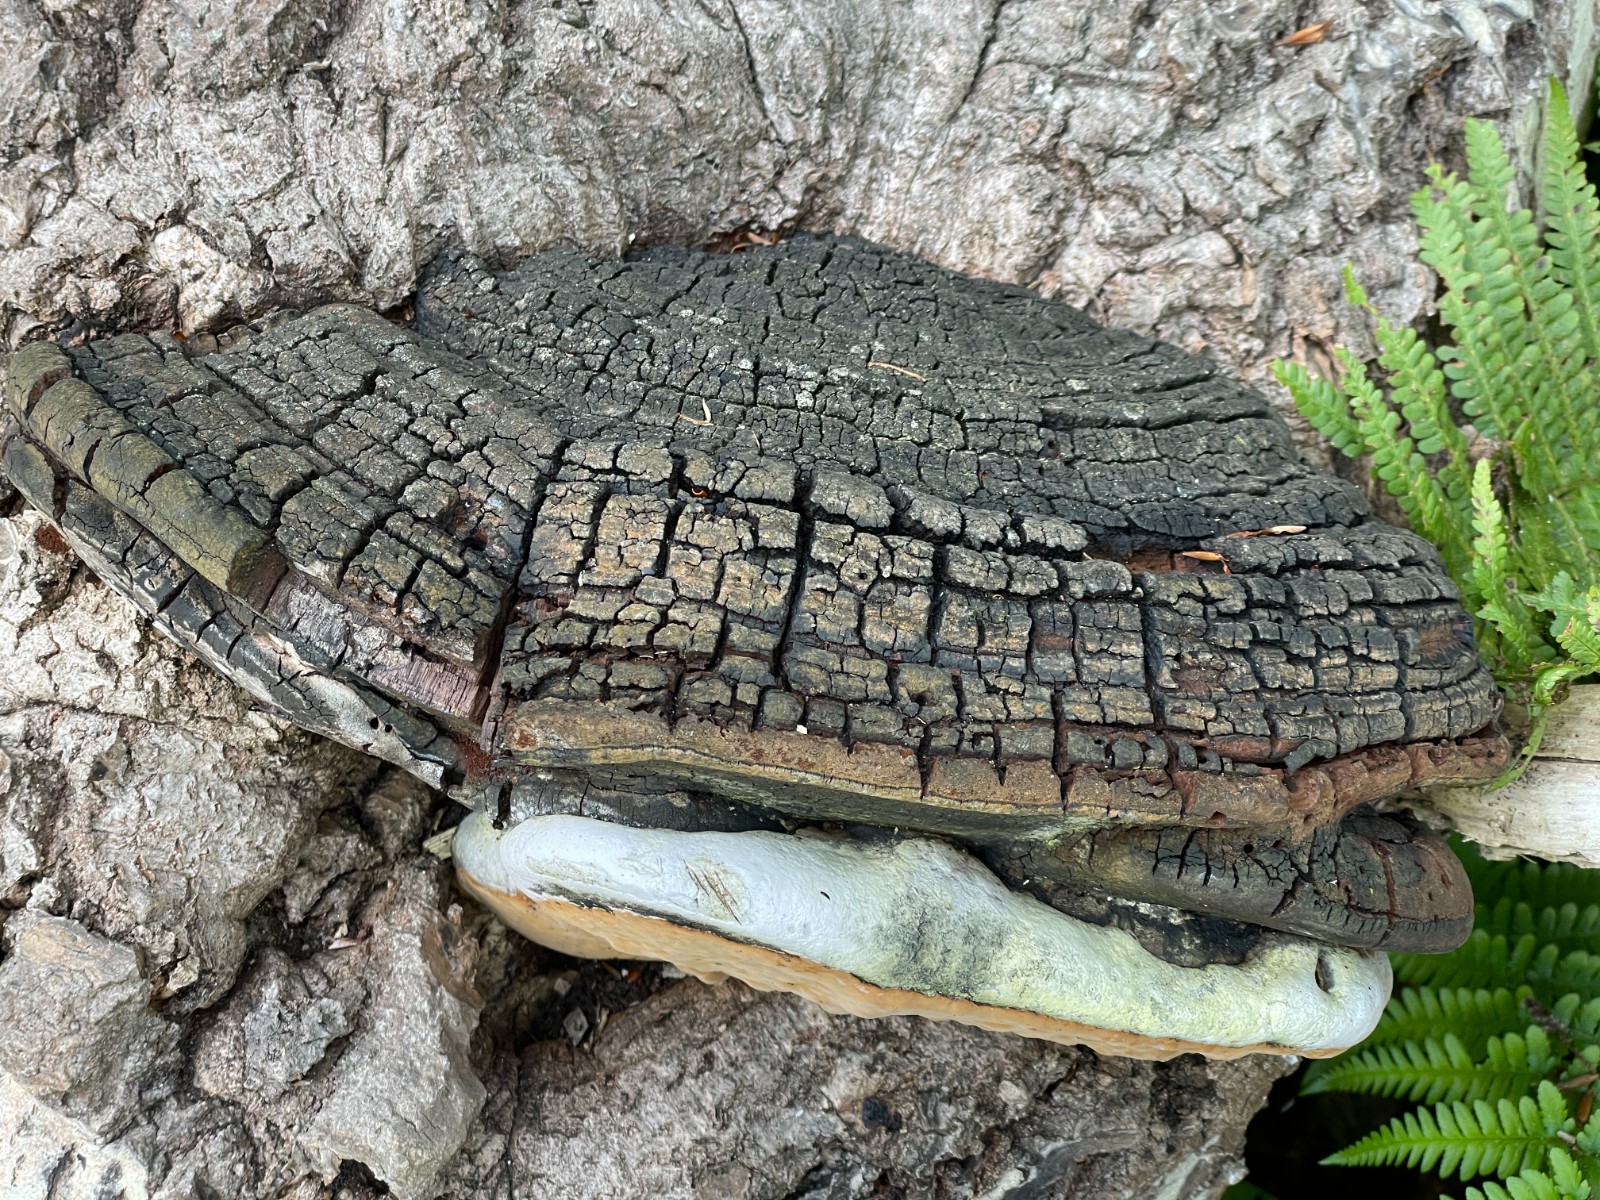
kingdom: Fungi
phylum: Basidiomycota
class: Agaricomycetes
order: Hymenochaetales
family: Hymenochaetaceae
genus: Phellinus
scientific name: Phellinus populicola
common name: poppel-ildporesvamp
